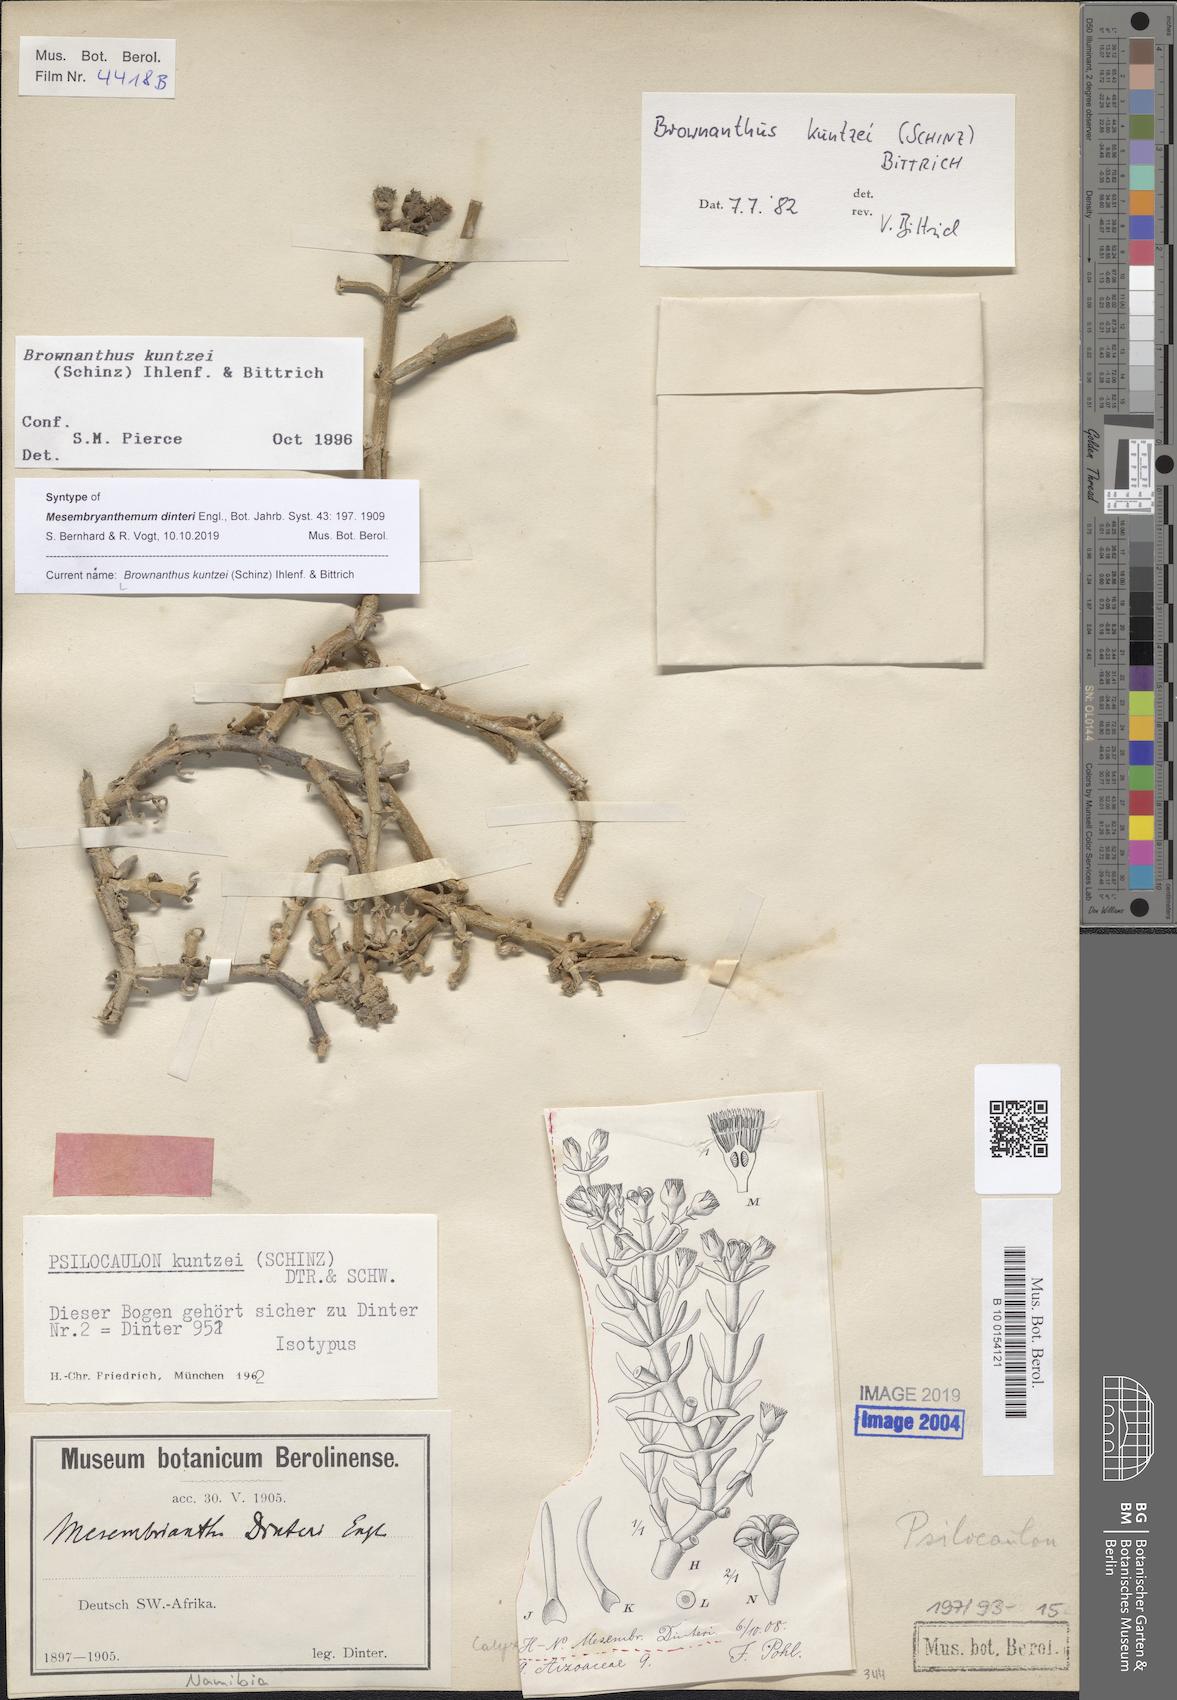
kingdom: Plantae
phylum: Tracheophyta
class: Magnoliopsida
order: Caryophyllales
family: Aizoaceae
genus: Mesembryanthemum
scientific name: Mesembryanthemum kuntzei
